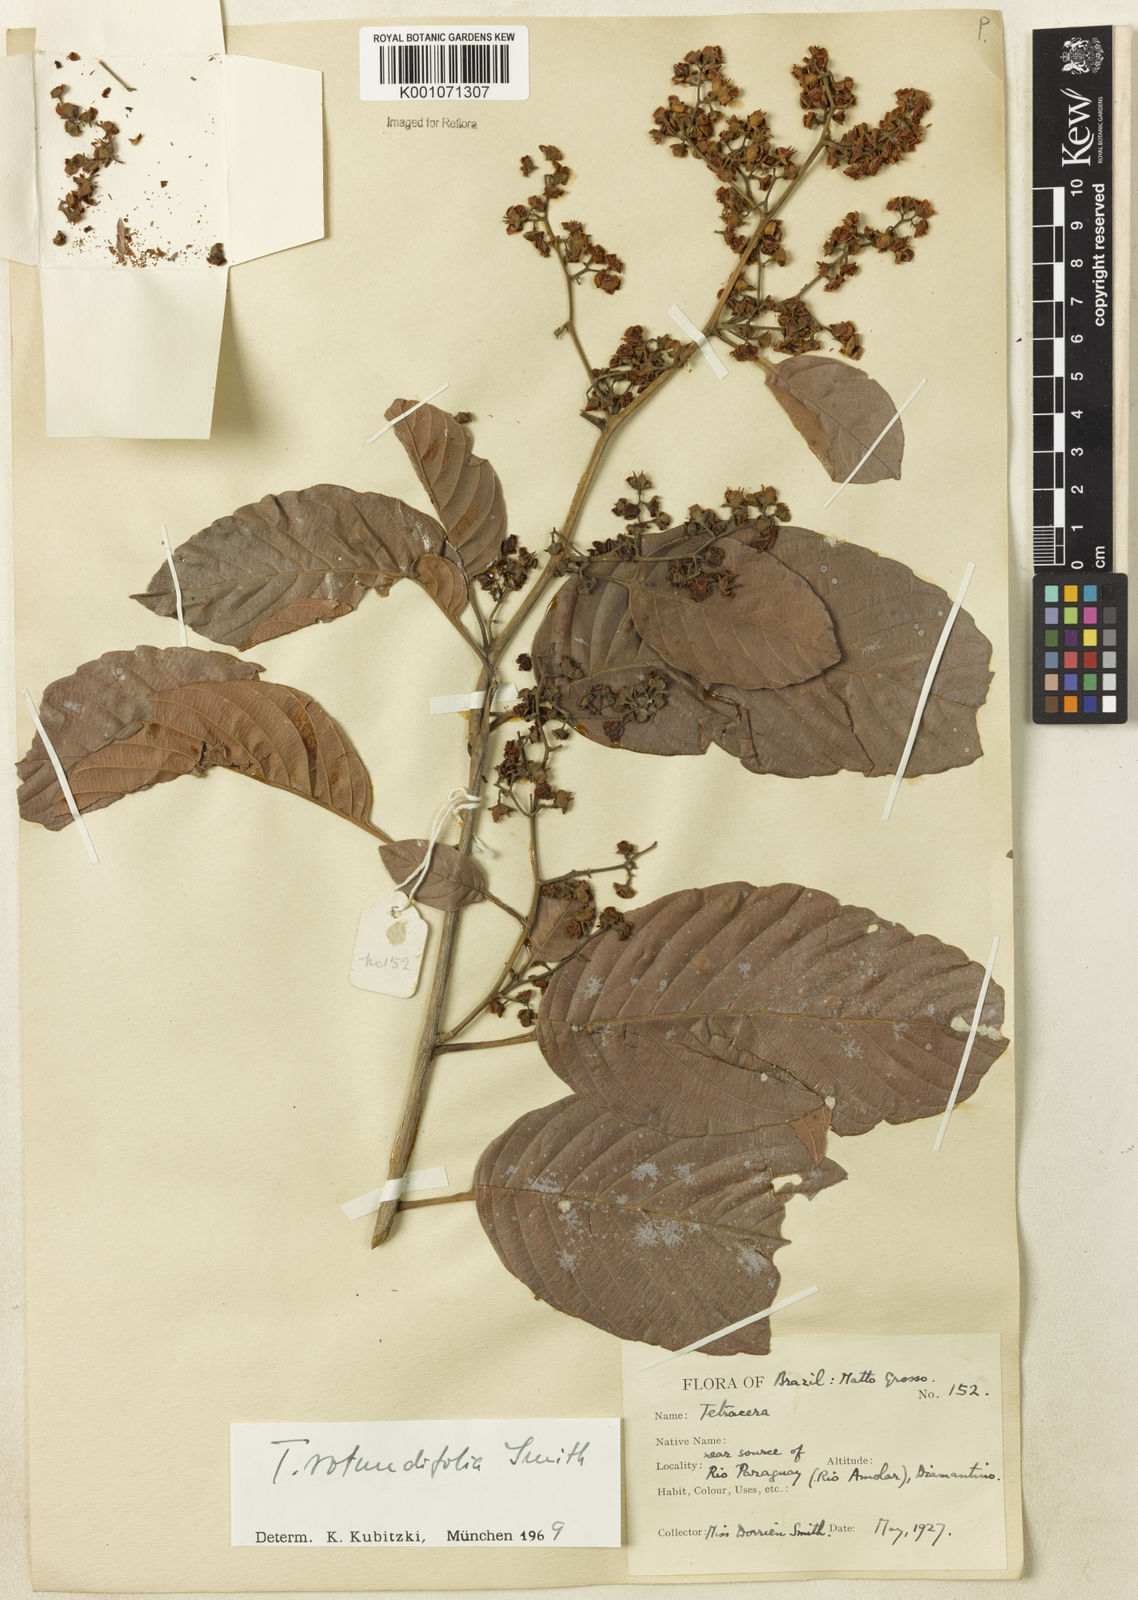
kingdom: Plantae
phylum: Tracheophyta
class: Magnoliopsida
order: Dilleniales
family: Dilleniaceae
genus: Tetracera
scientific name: Tetracera rotundifolia
